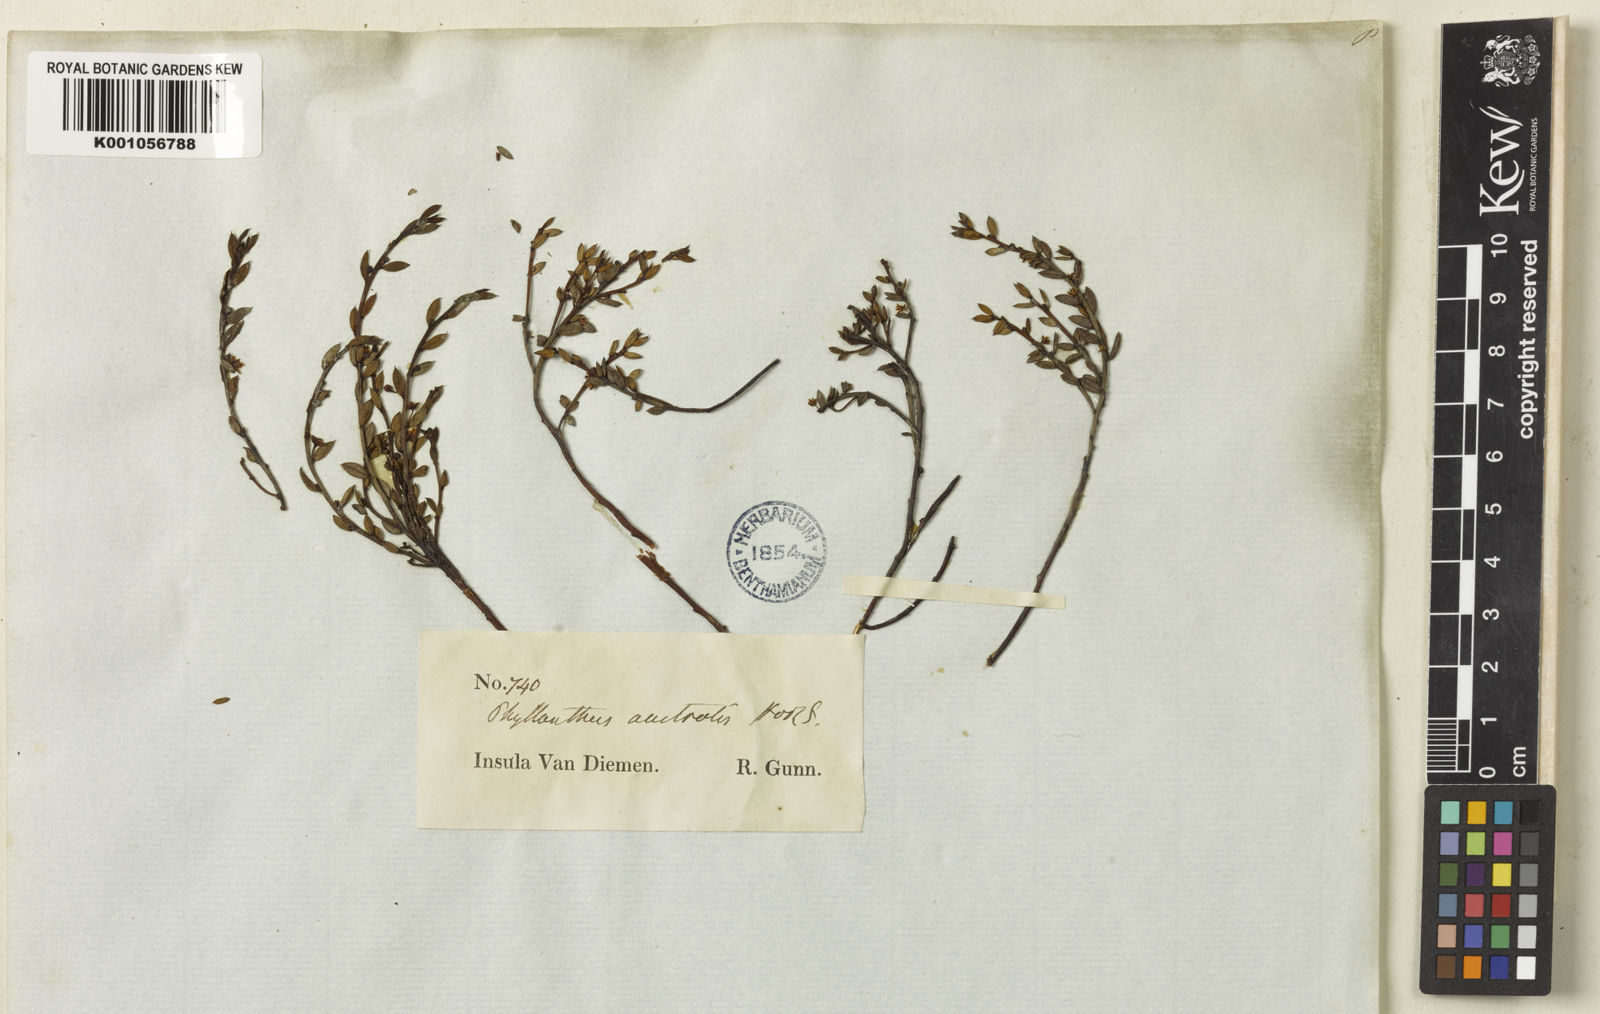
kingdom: Plantae
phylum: Tracheophyta
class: Magnoliopsida
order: Malpighiales
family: Phyllanthaceae
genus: Phyllanthus
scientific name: Phyllanthus australis
